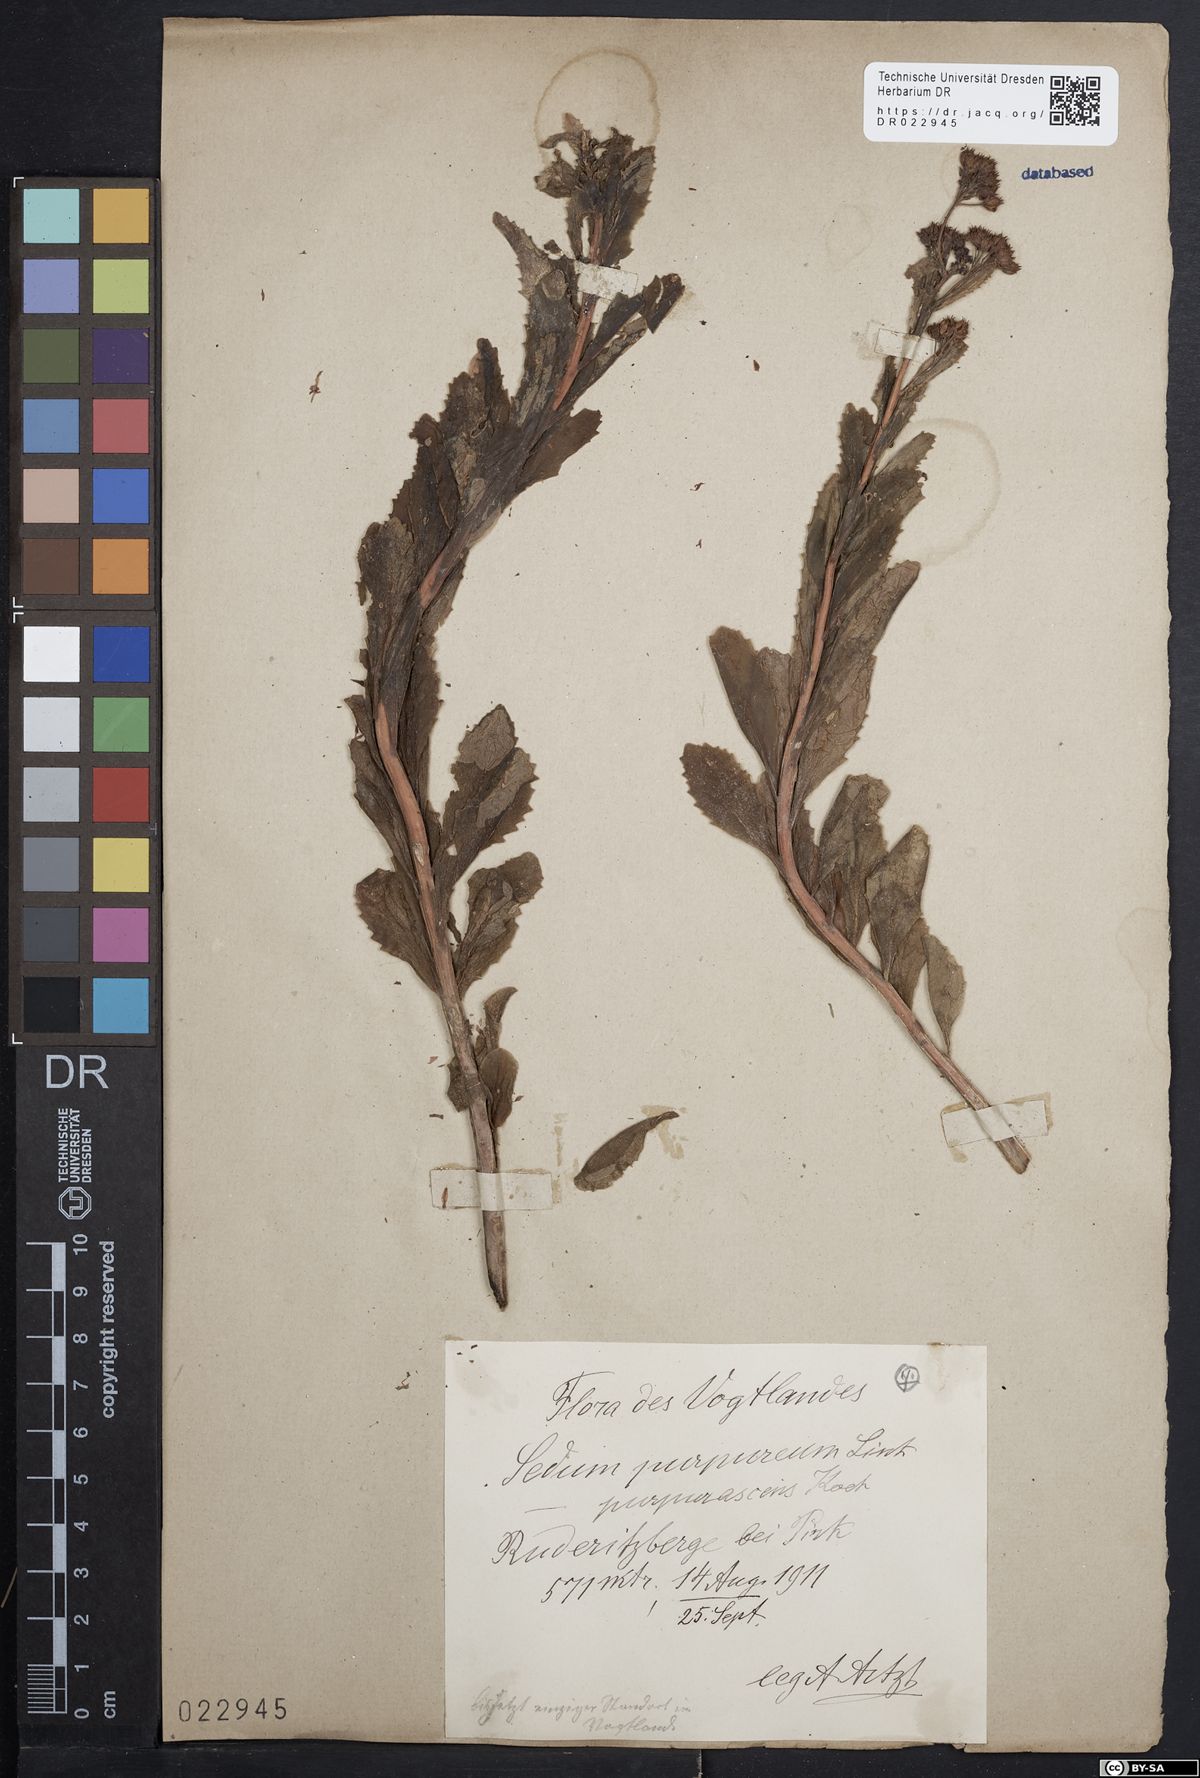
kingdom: Plantae
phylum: Tracheophyta
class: Magnoliopsida
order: Saxifragales
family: Crassulaceae
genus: Hylotelephium
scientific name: Hylotelephium telephium
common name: Live-forever
